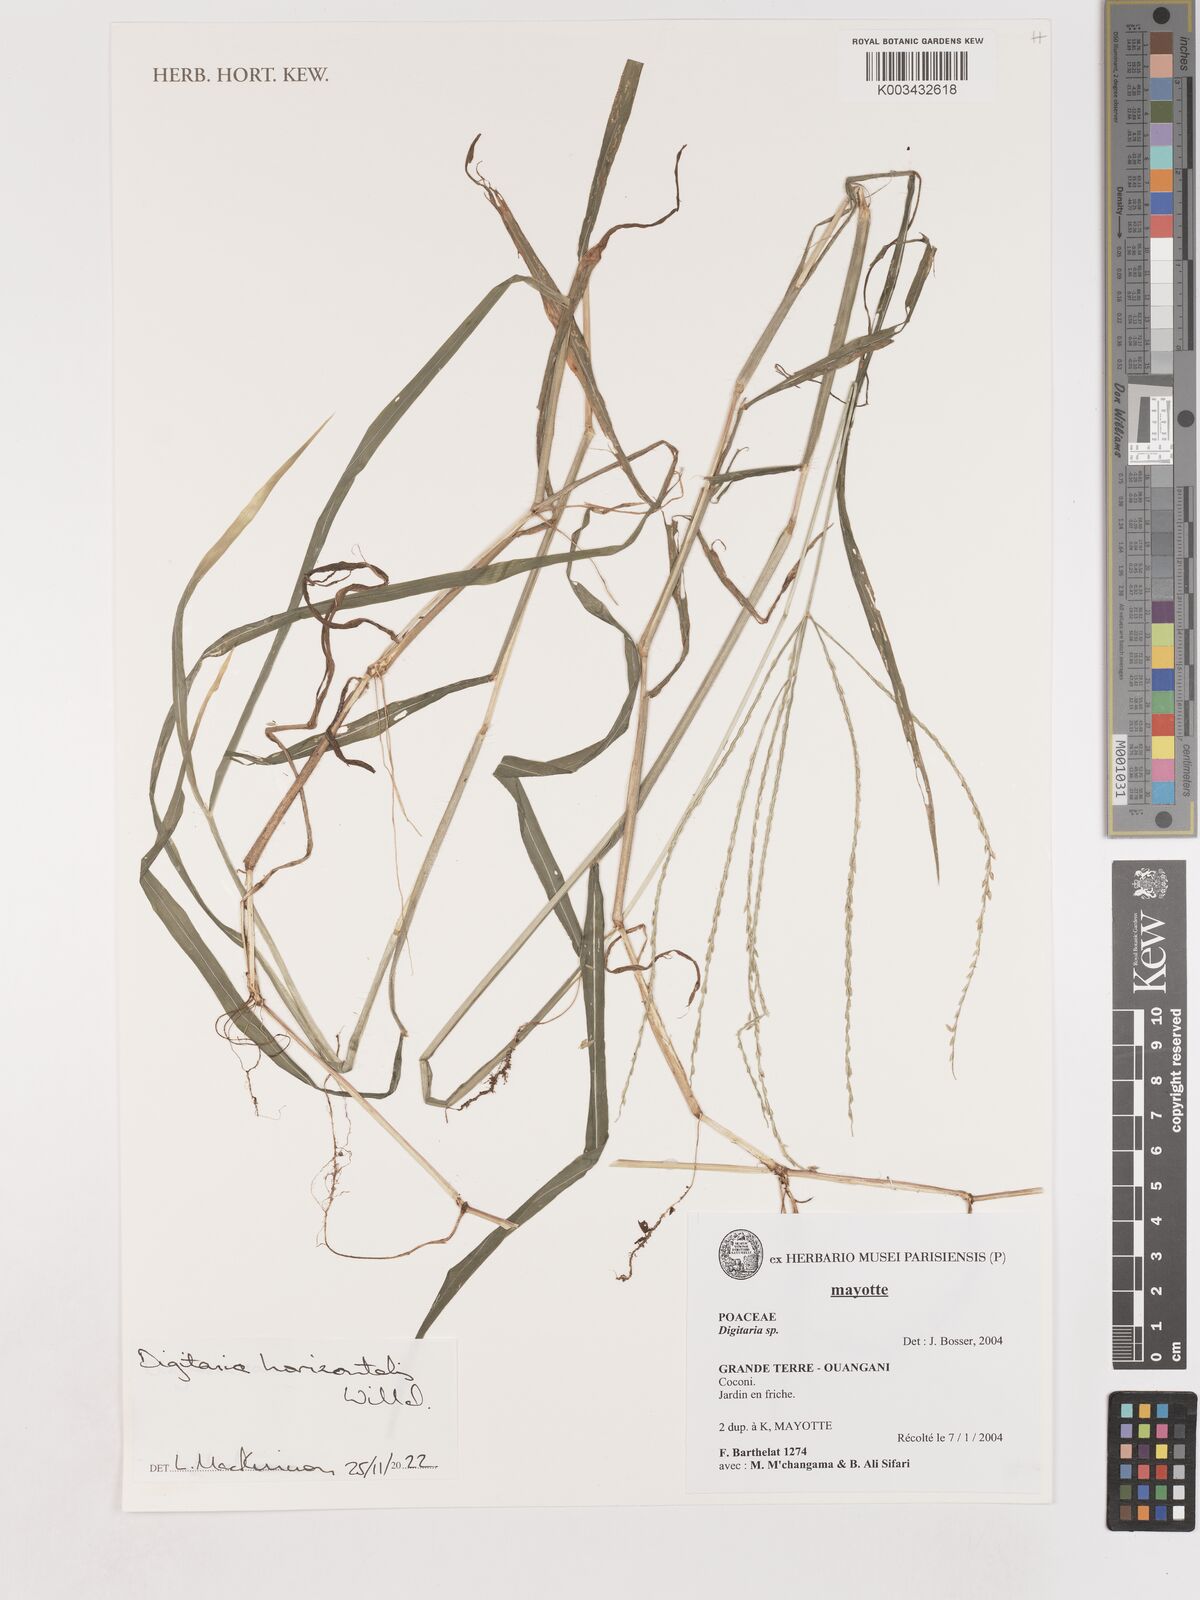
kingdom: Plantae
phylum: Tracheophyta
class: Liliopsida
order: Poales
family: Poaceae
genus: Digitaria
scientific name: Digitaria horizontalis
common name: Jamaican crabgrass
